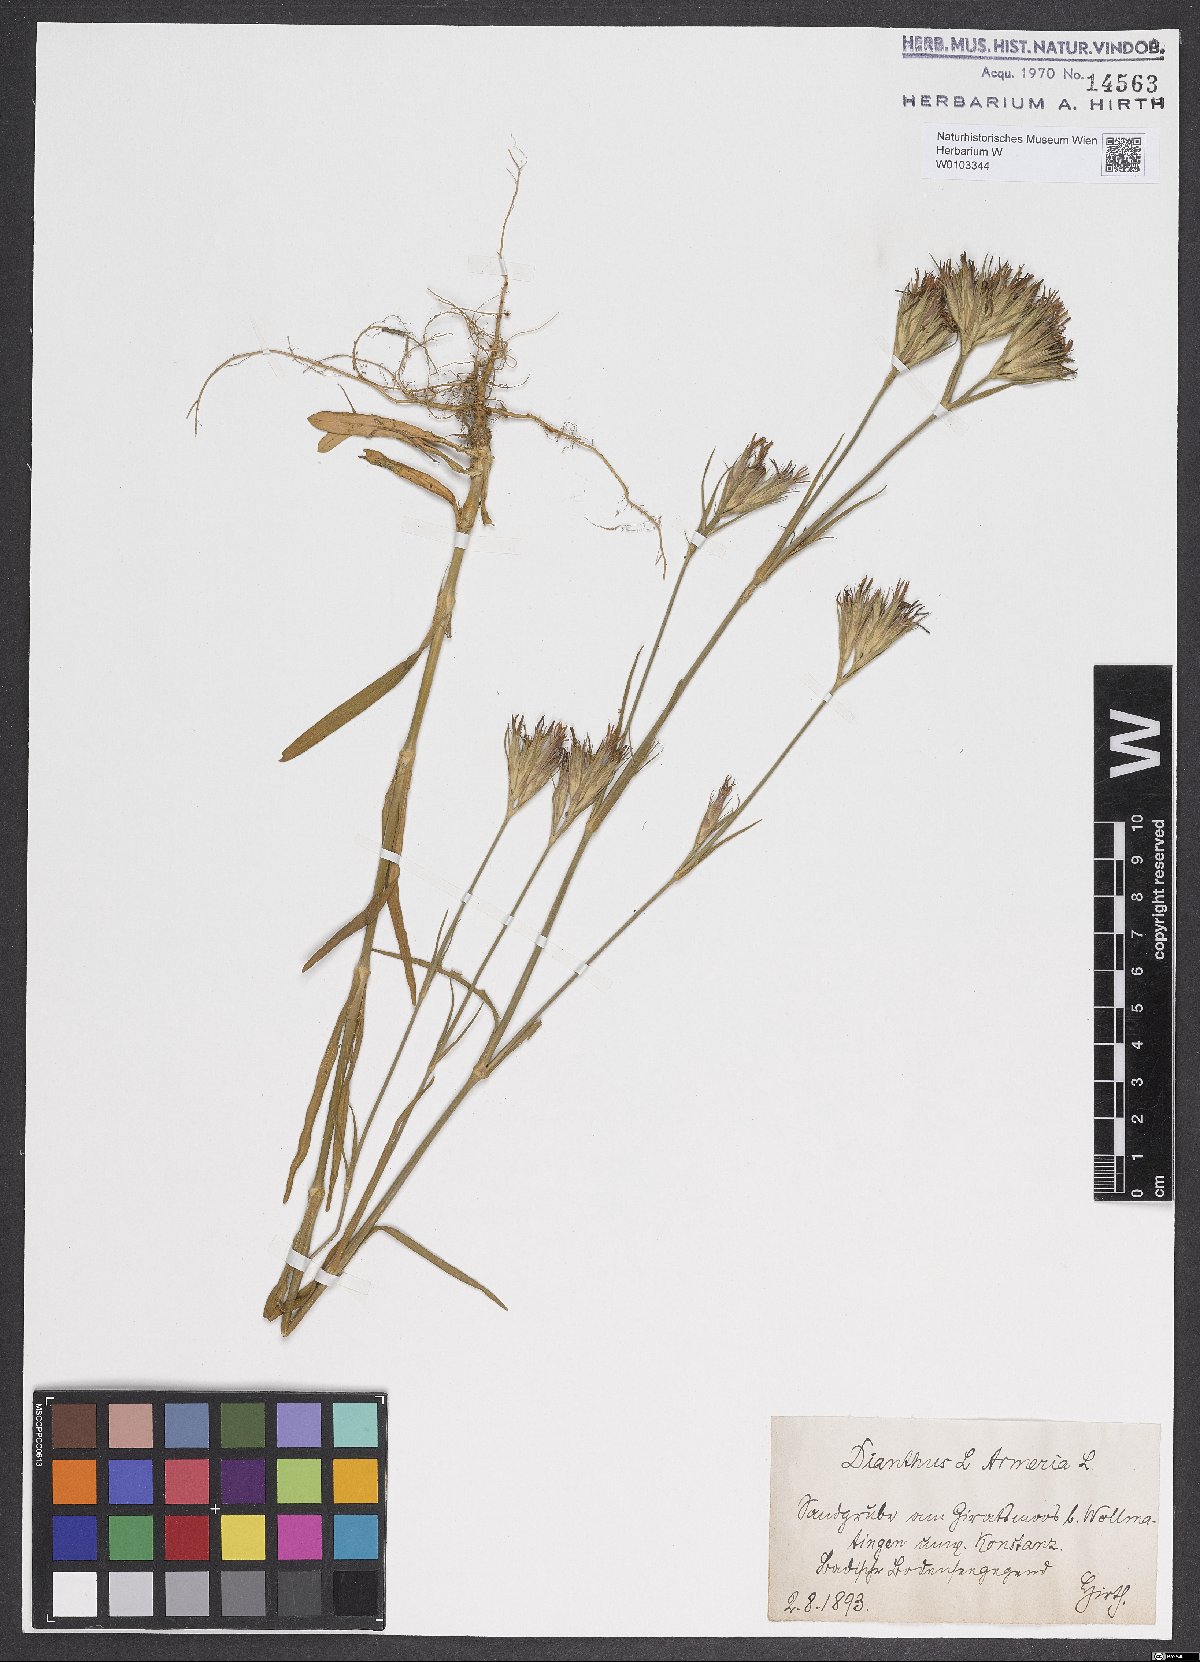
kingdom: Plantae
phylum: Tracheophyta
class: Magnoliopsida
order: Caryophyllales
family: Caryophyllaceae
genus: Dianthus
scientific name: Dianthus armeria
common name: Deptford pink
